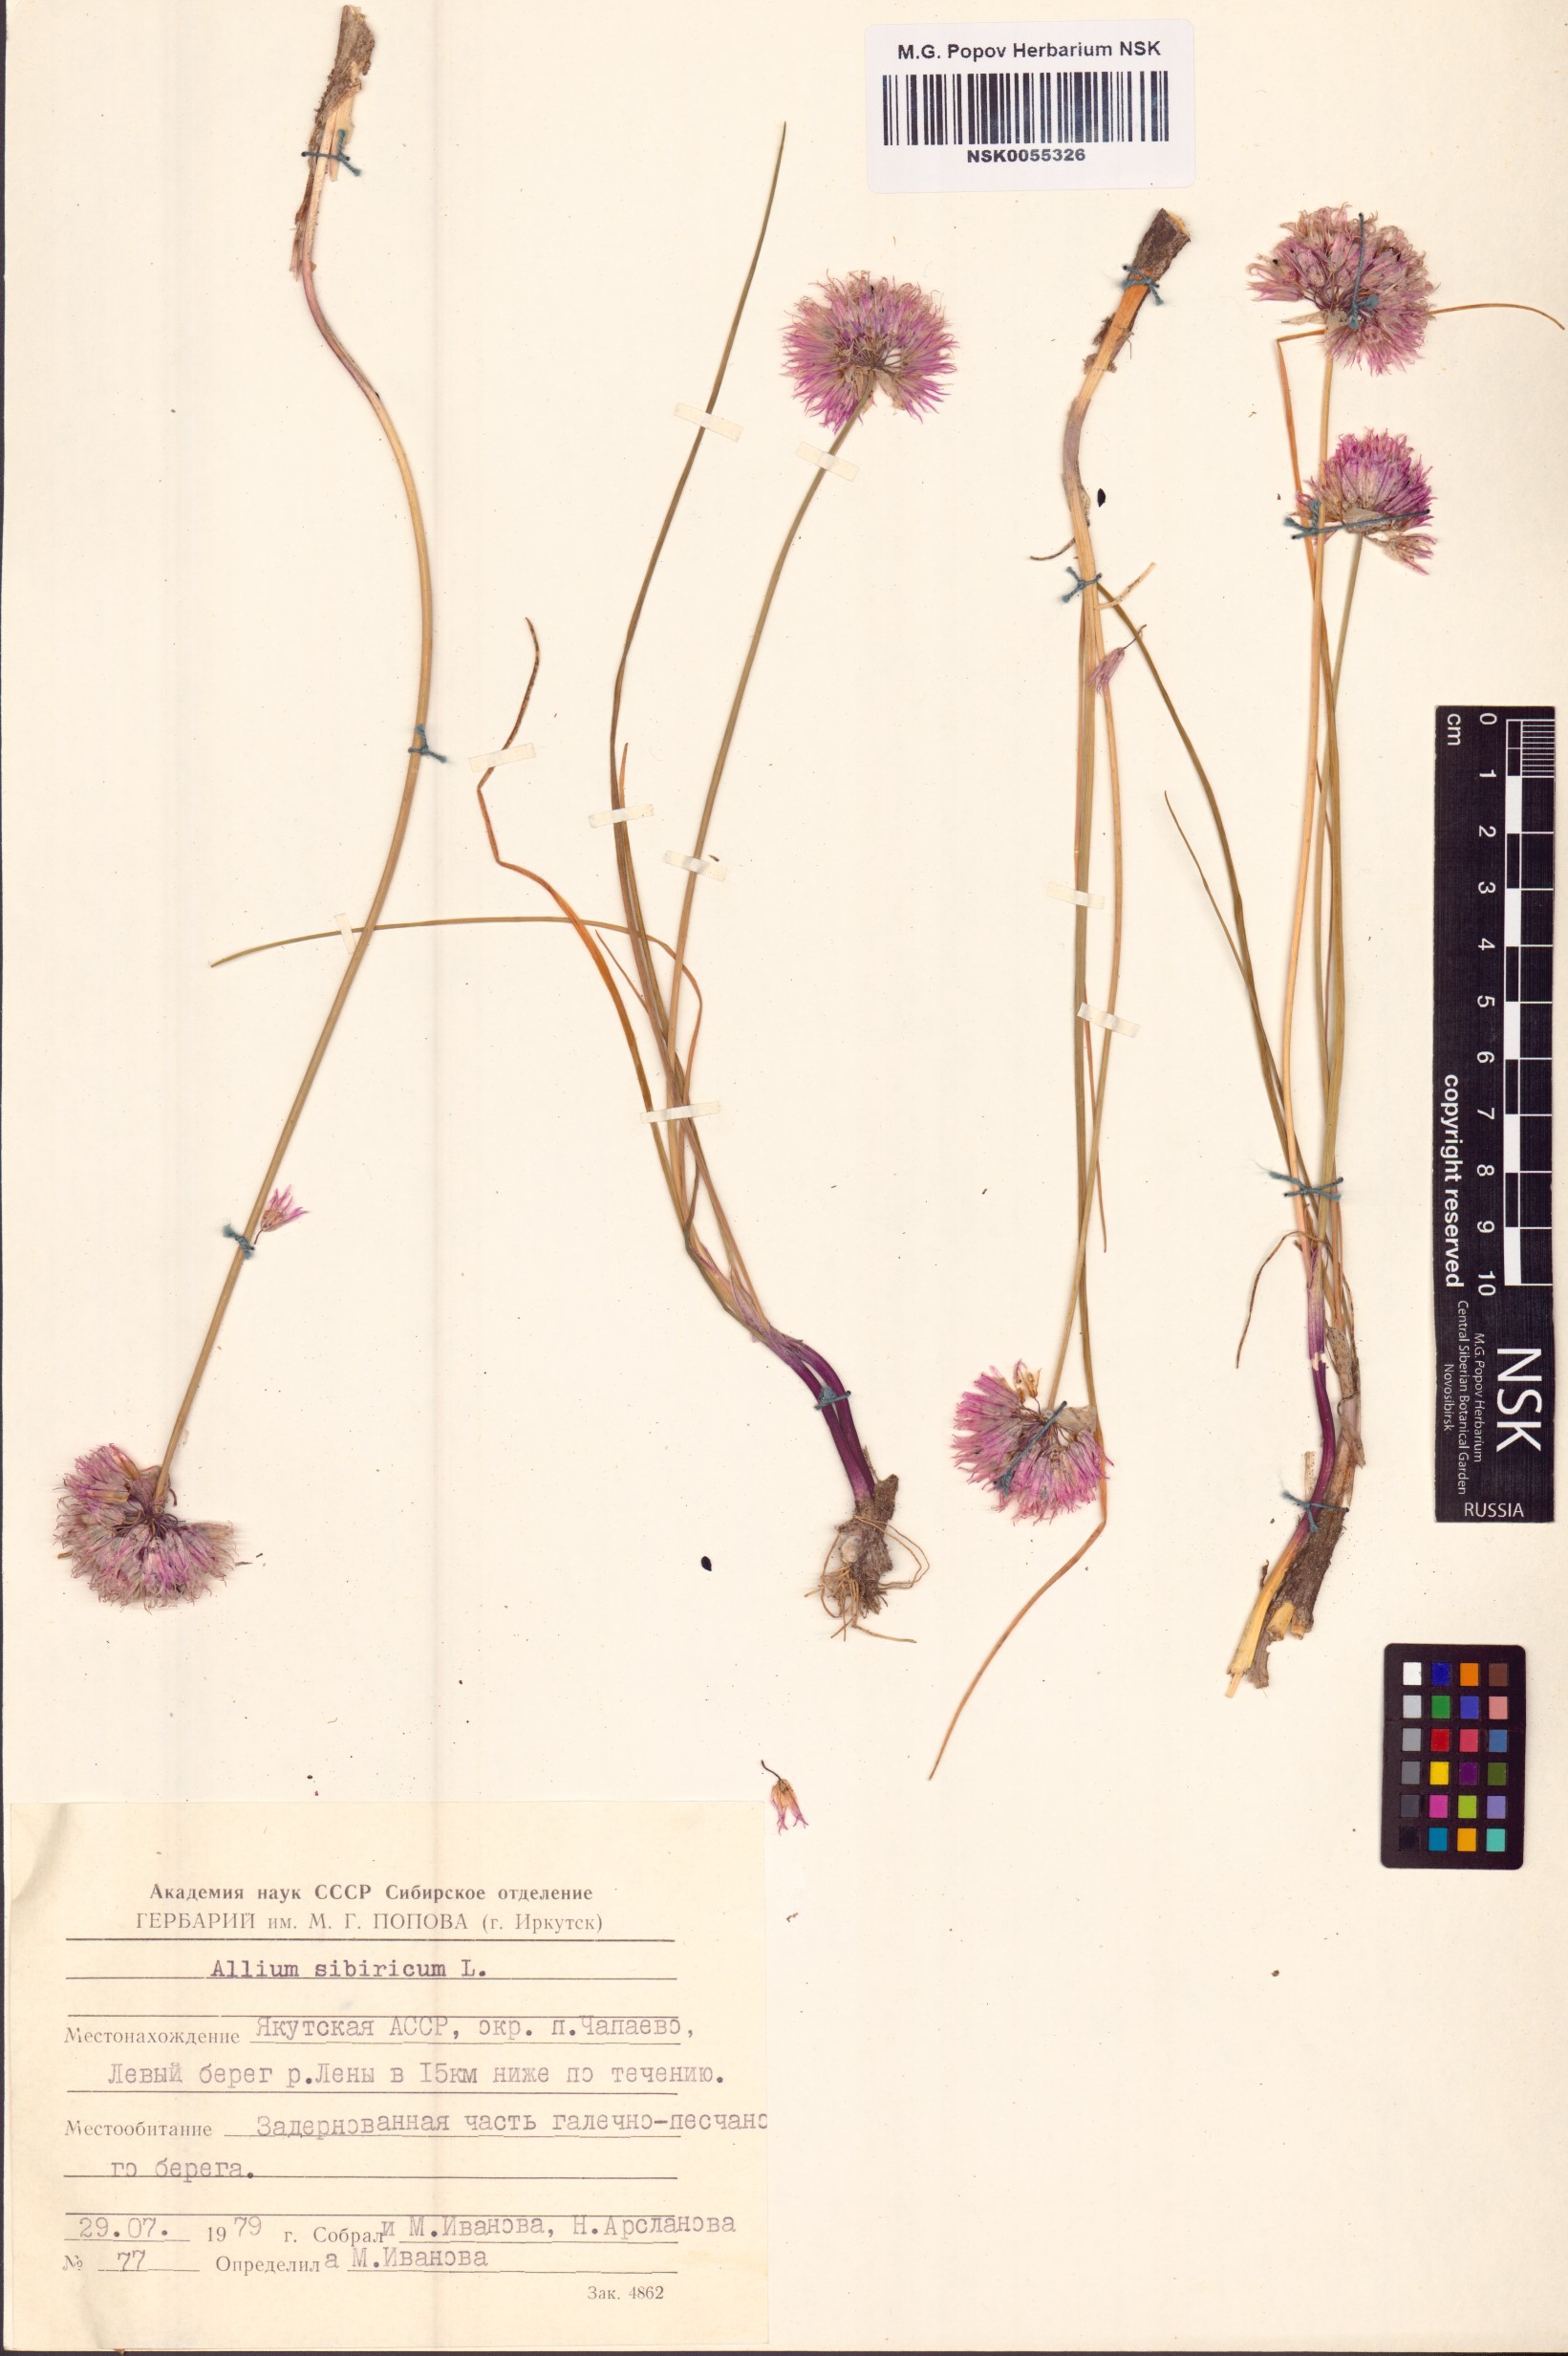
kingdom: Plantae
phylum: Tracheophyta
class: Liliopsida
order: Asparagales
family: Amaryllidaceae
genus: Allium
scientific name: Allium schoenoprasum
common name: Chives
